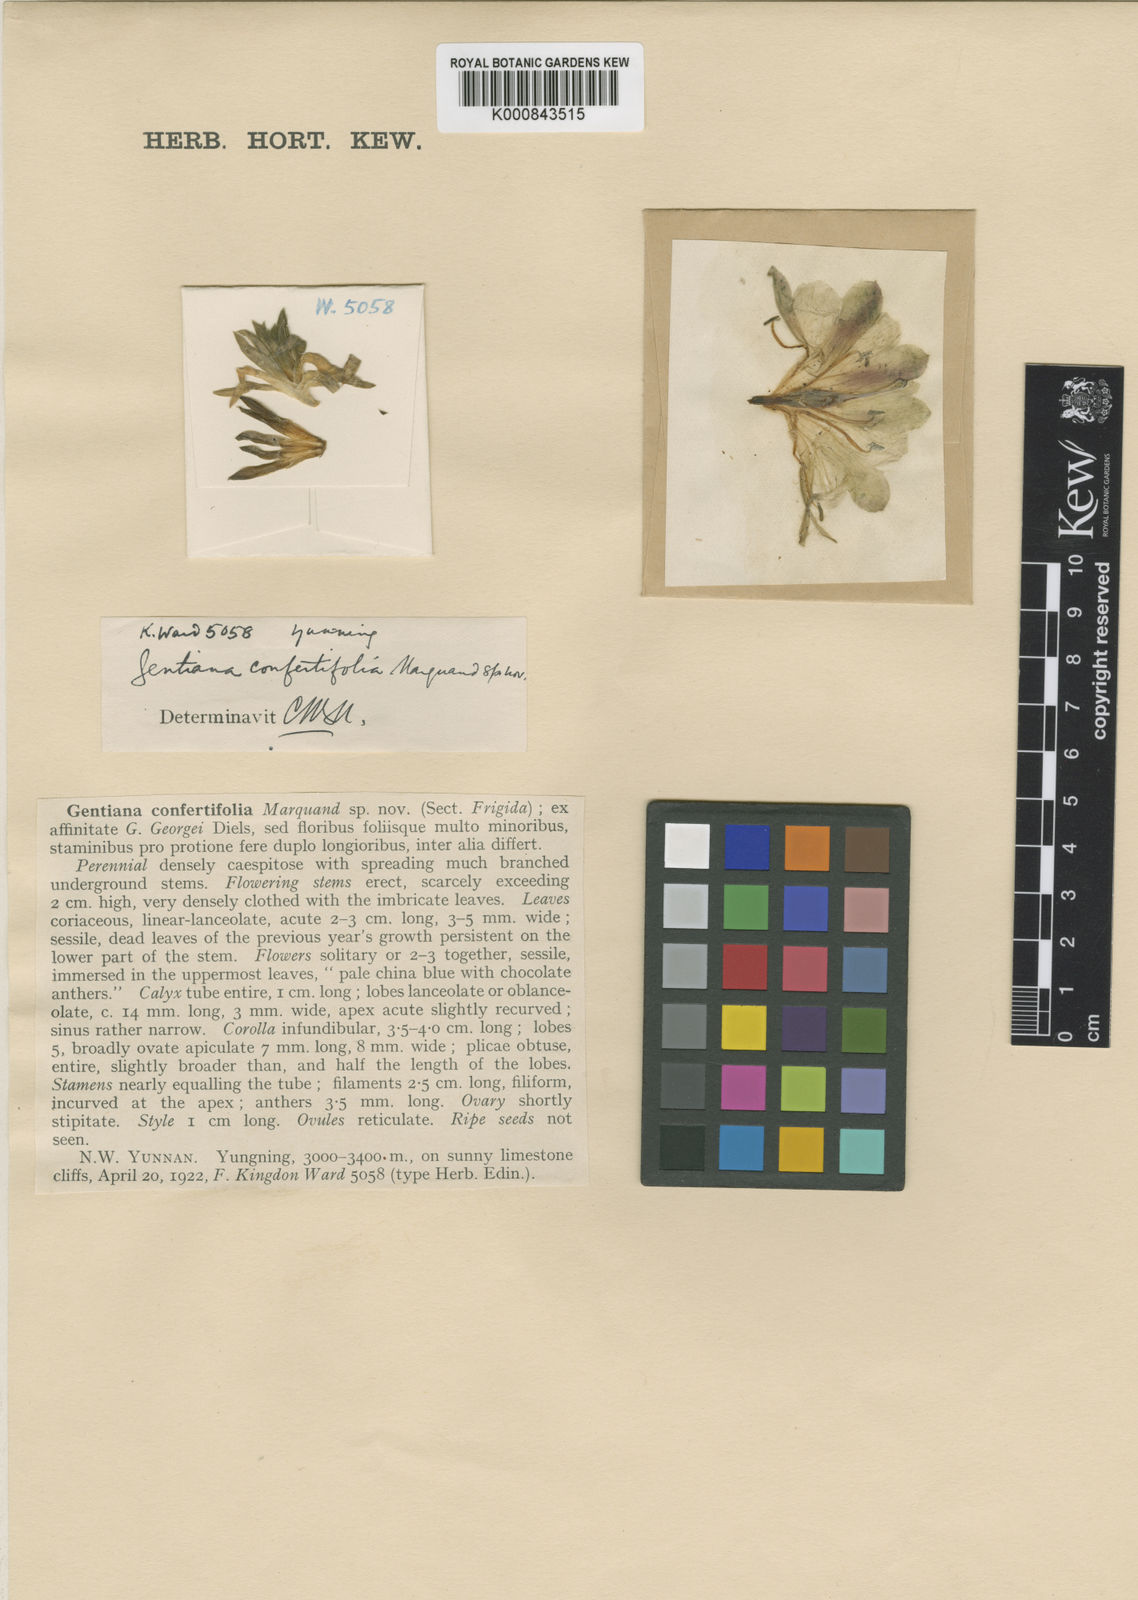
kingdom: Plantae
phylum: Tracheophyta
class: Magnoliopsida
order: Gentianales
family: Gentianaceae
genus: Gentiana
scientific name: Gentiana confertifolia
